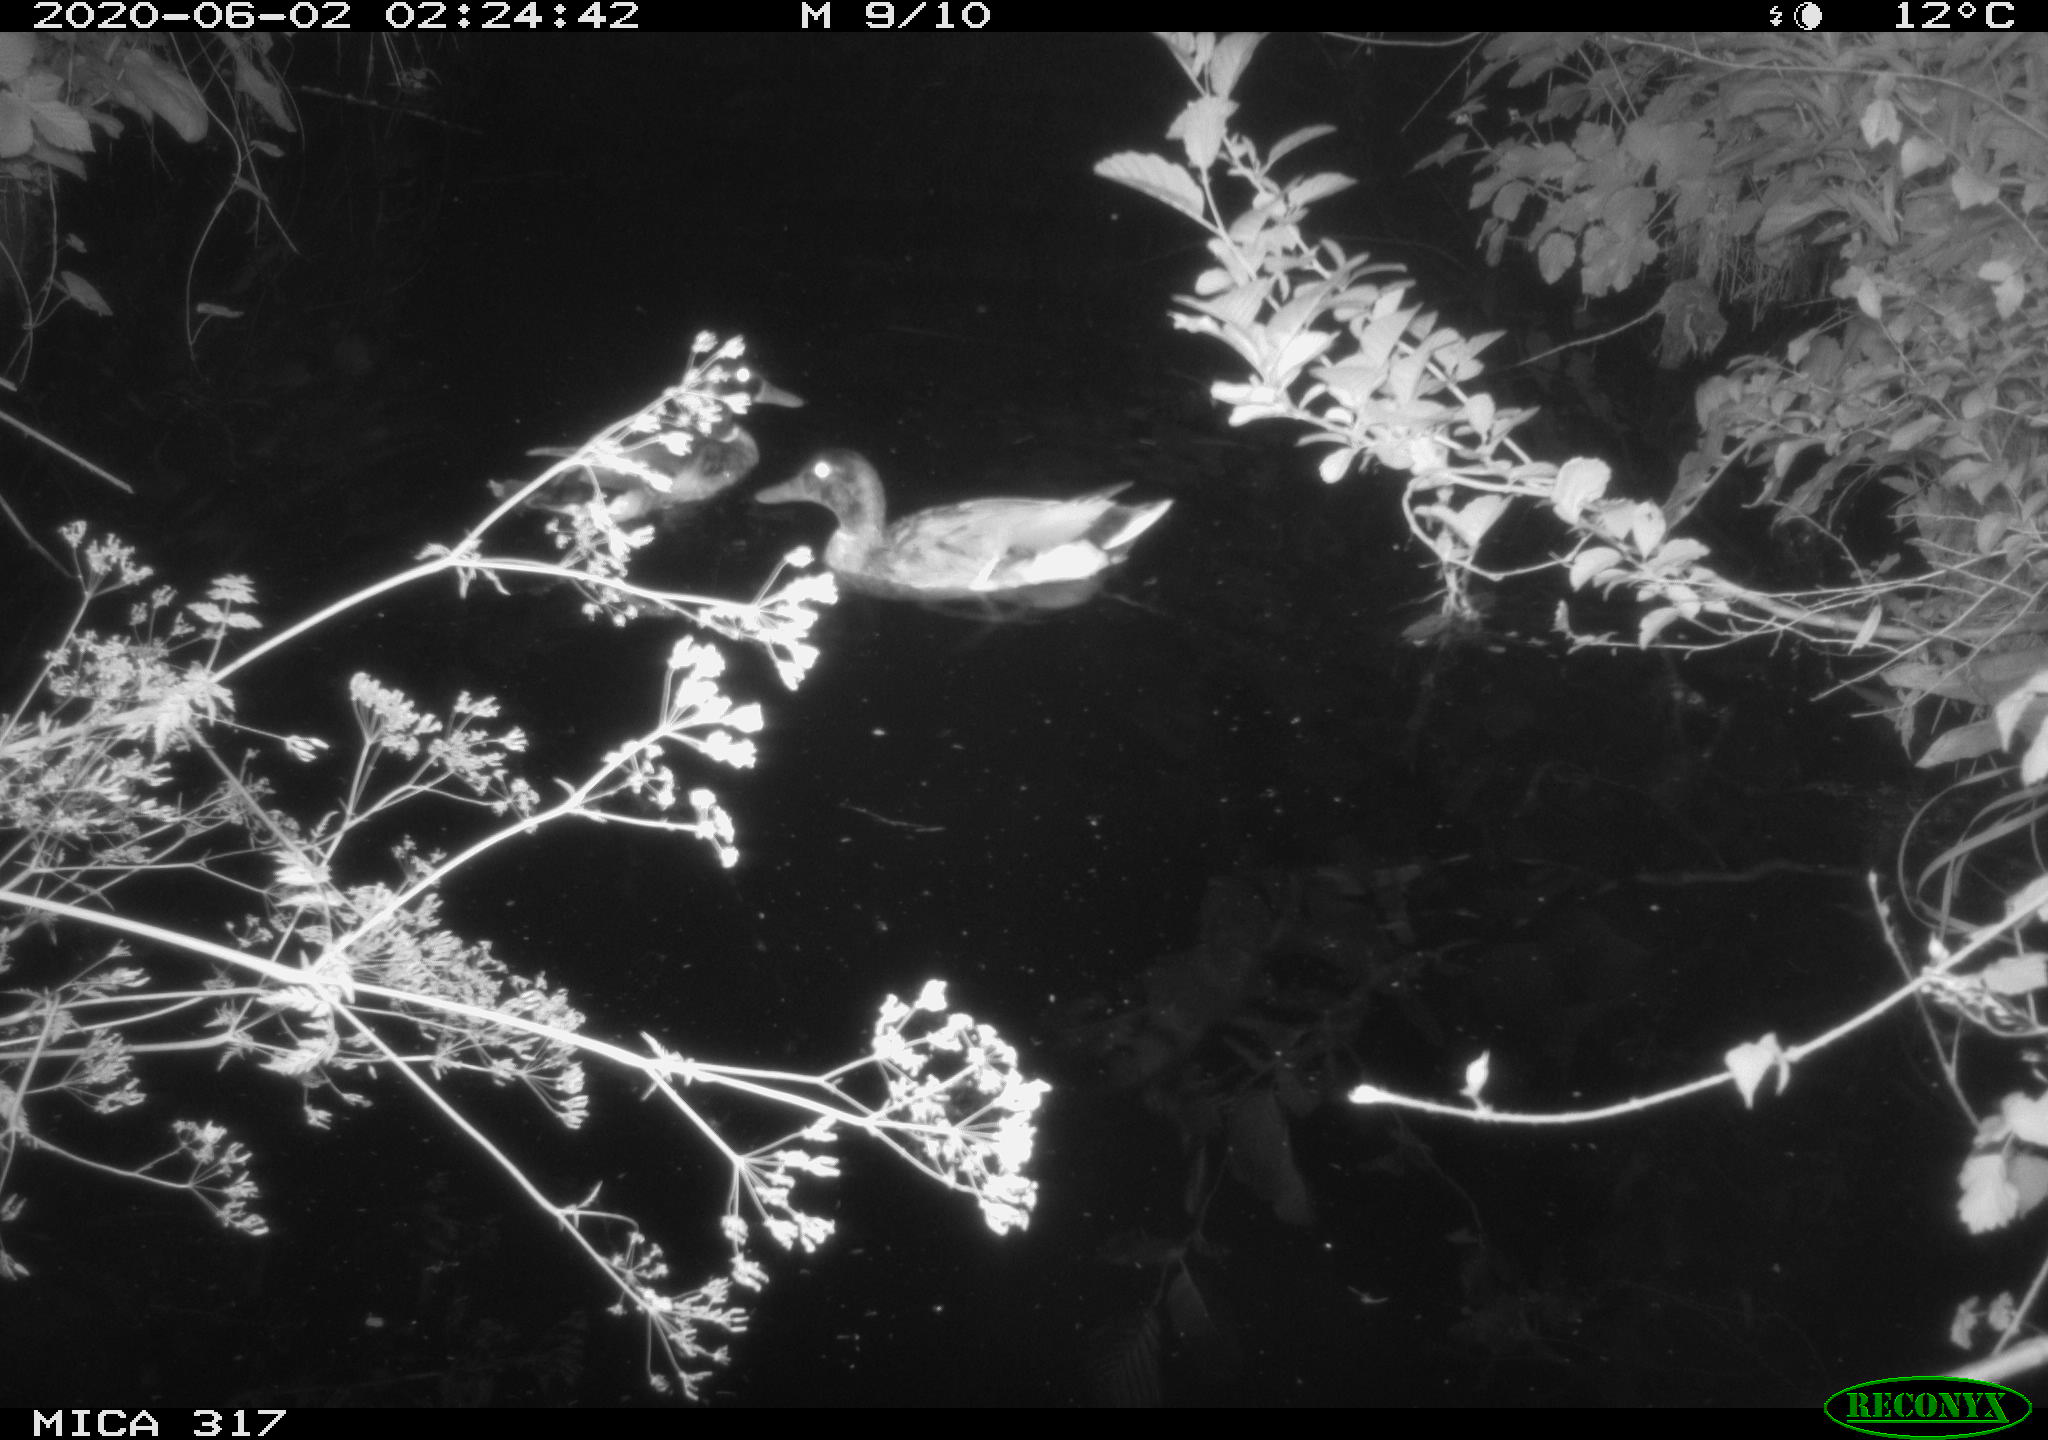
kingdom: Animalia
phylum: Chordata
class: Aves
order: Anseriformes
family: Anatidae
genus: Anas
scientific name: Anas platyrhynchos
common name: Mallard
